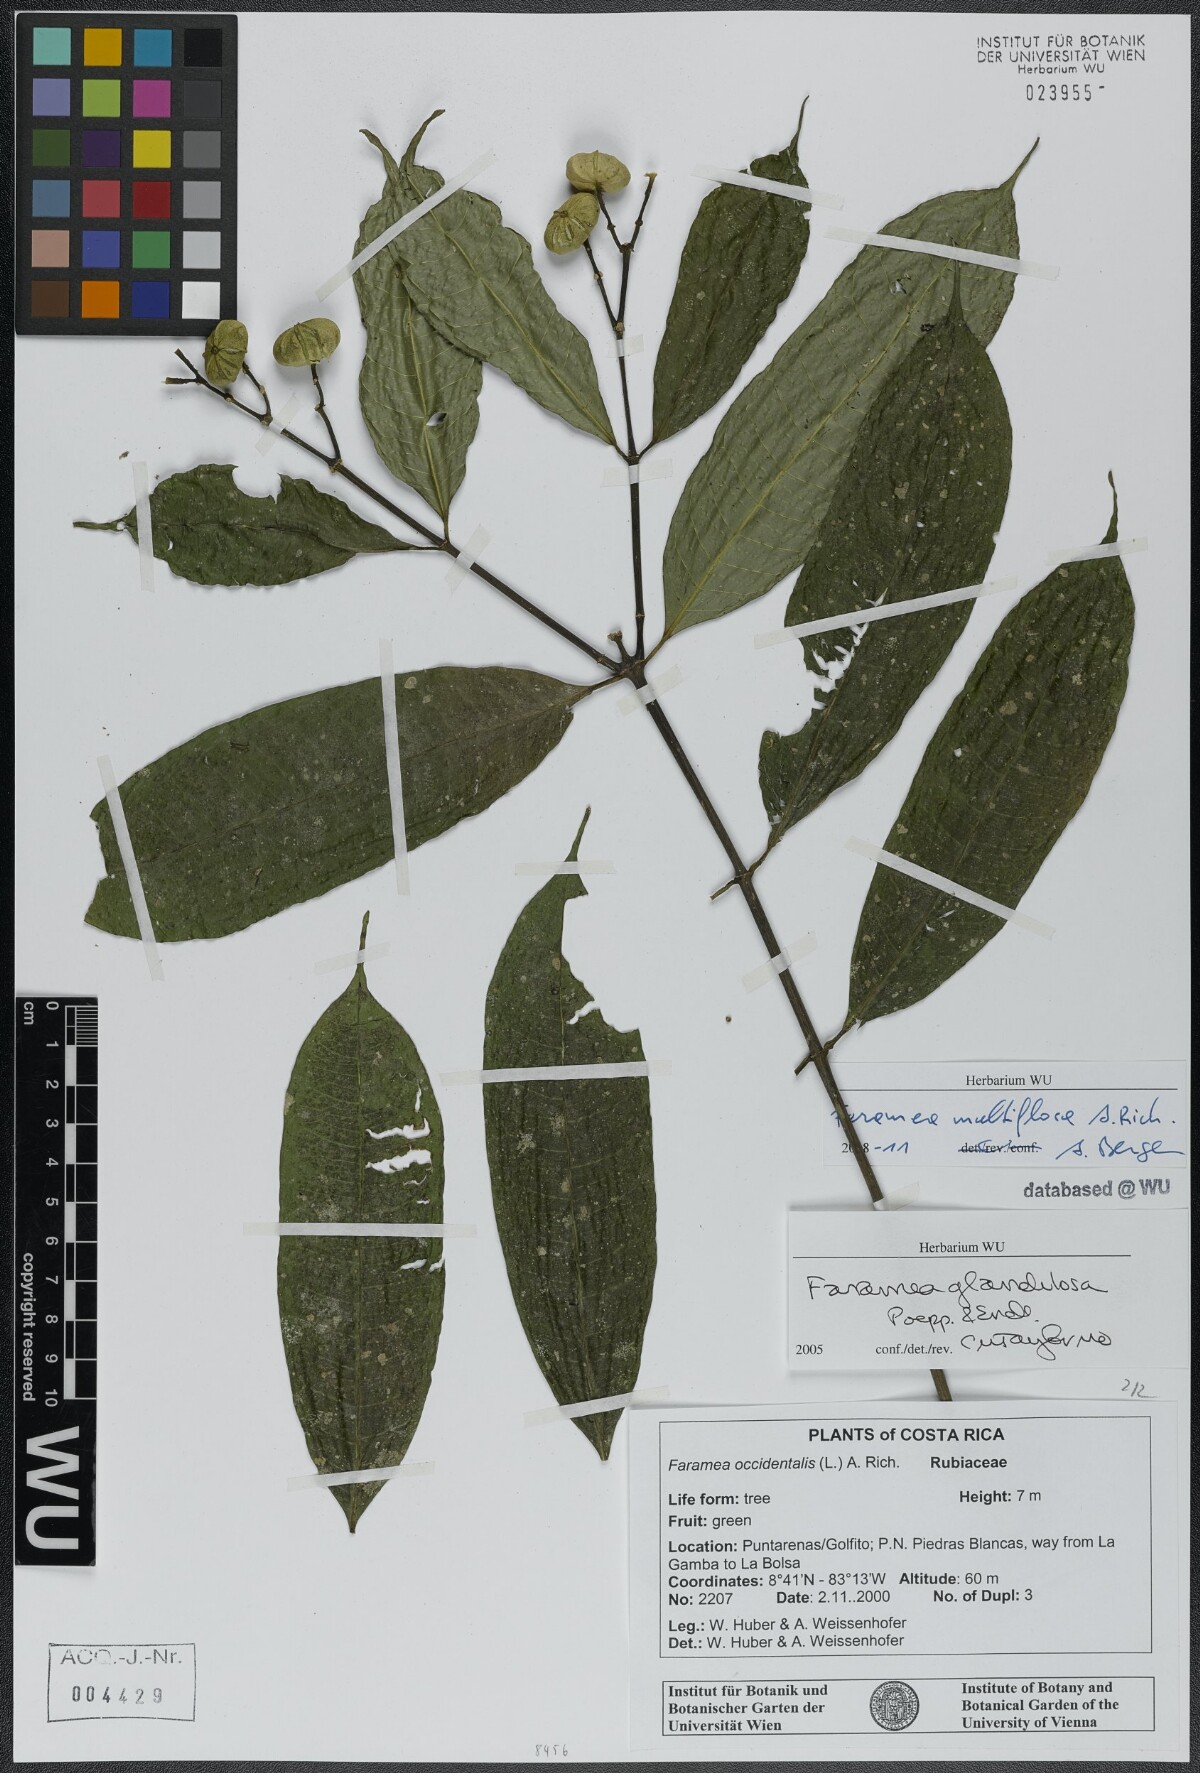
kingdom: Plantae
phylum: Tracheophyta
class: Magnoliopsida
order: Gentianales
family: Rubiaceae
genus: Faramea
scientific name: Faramea multiflora
